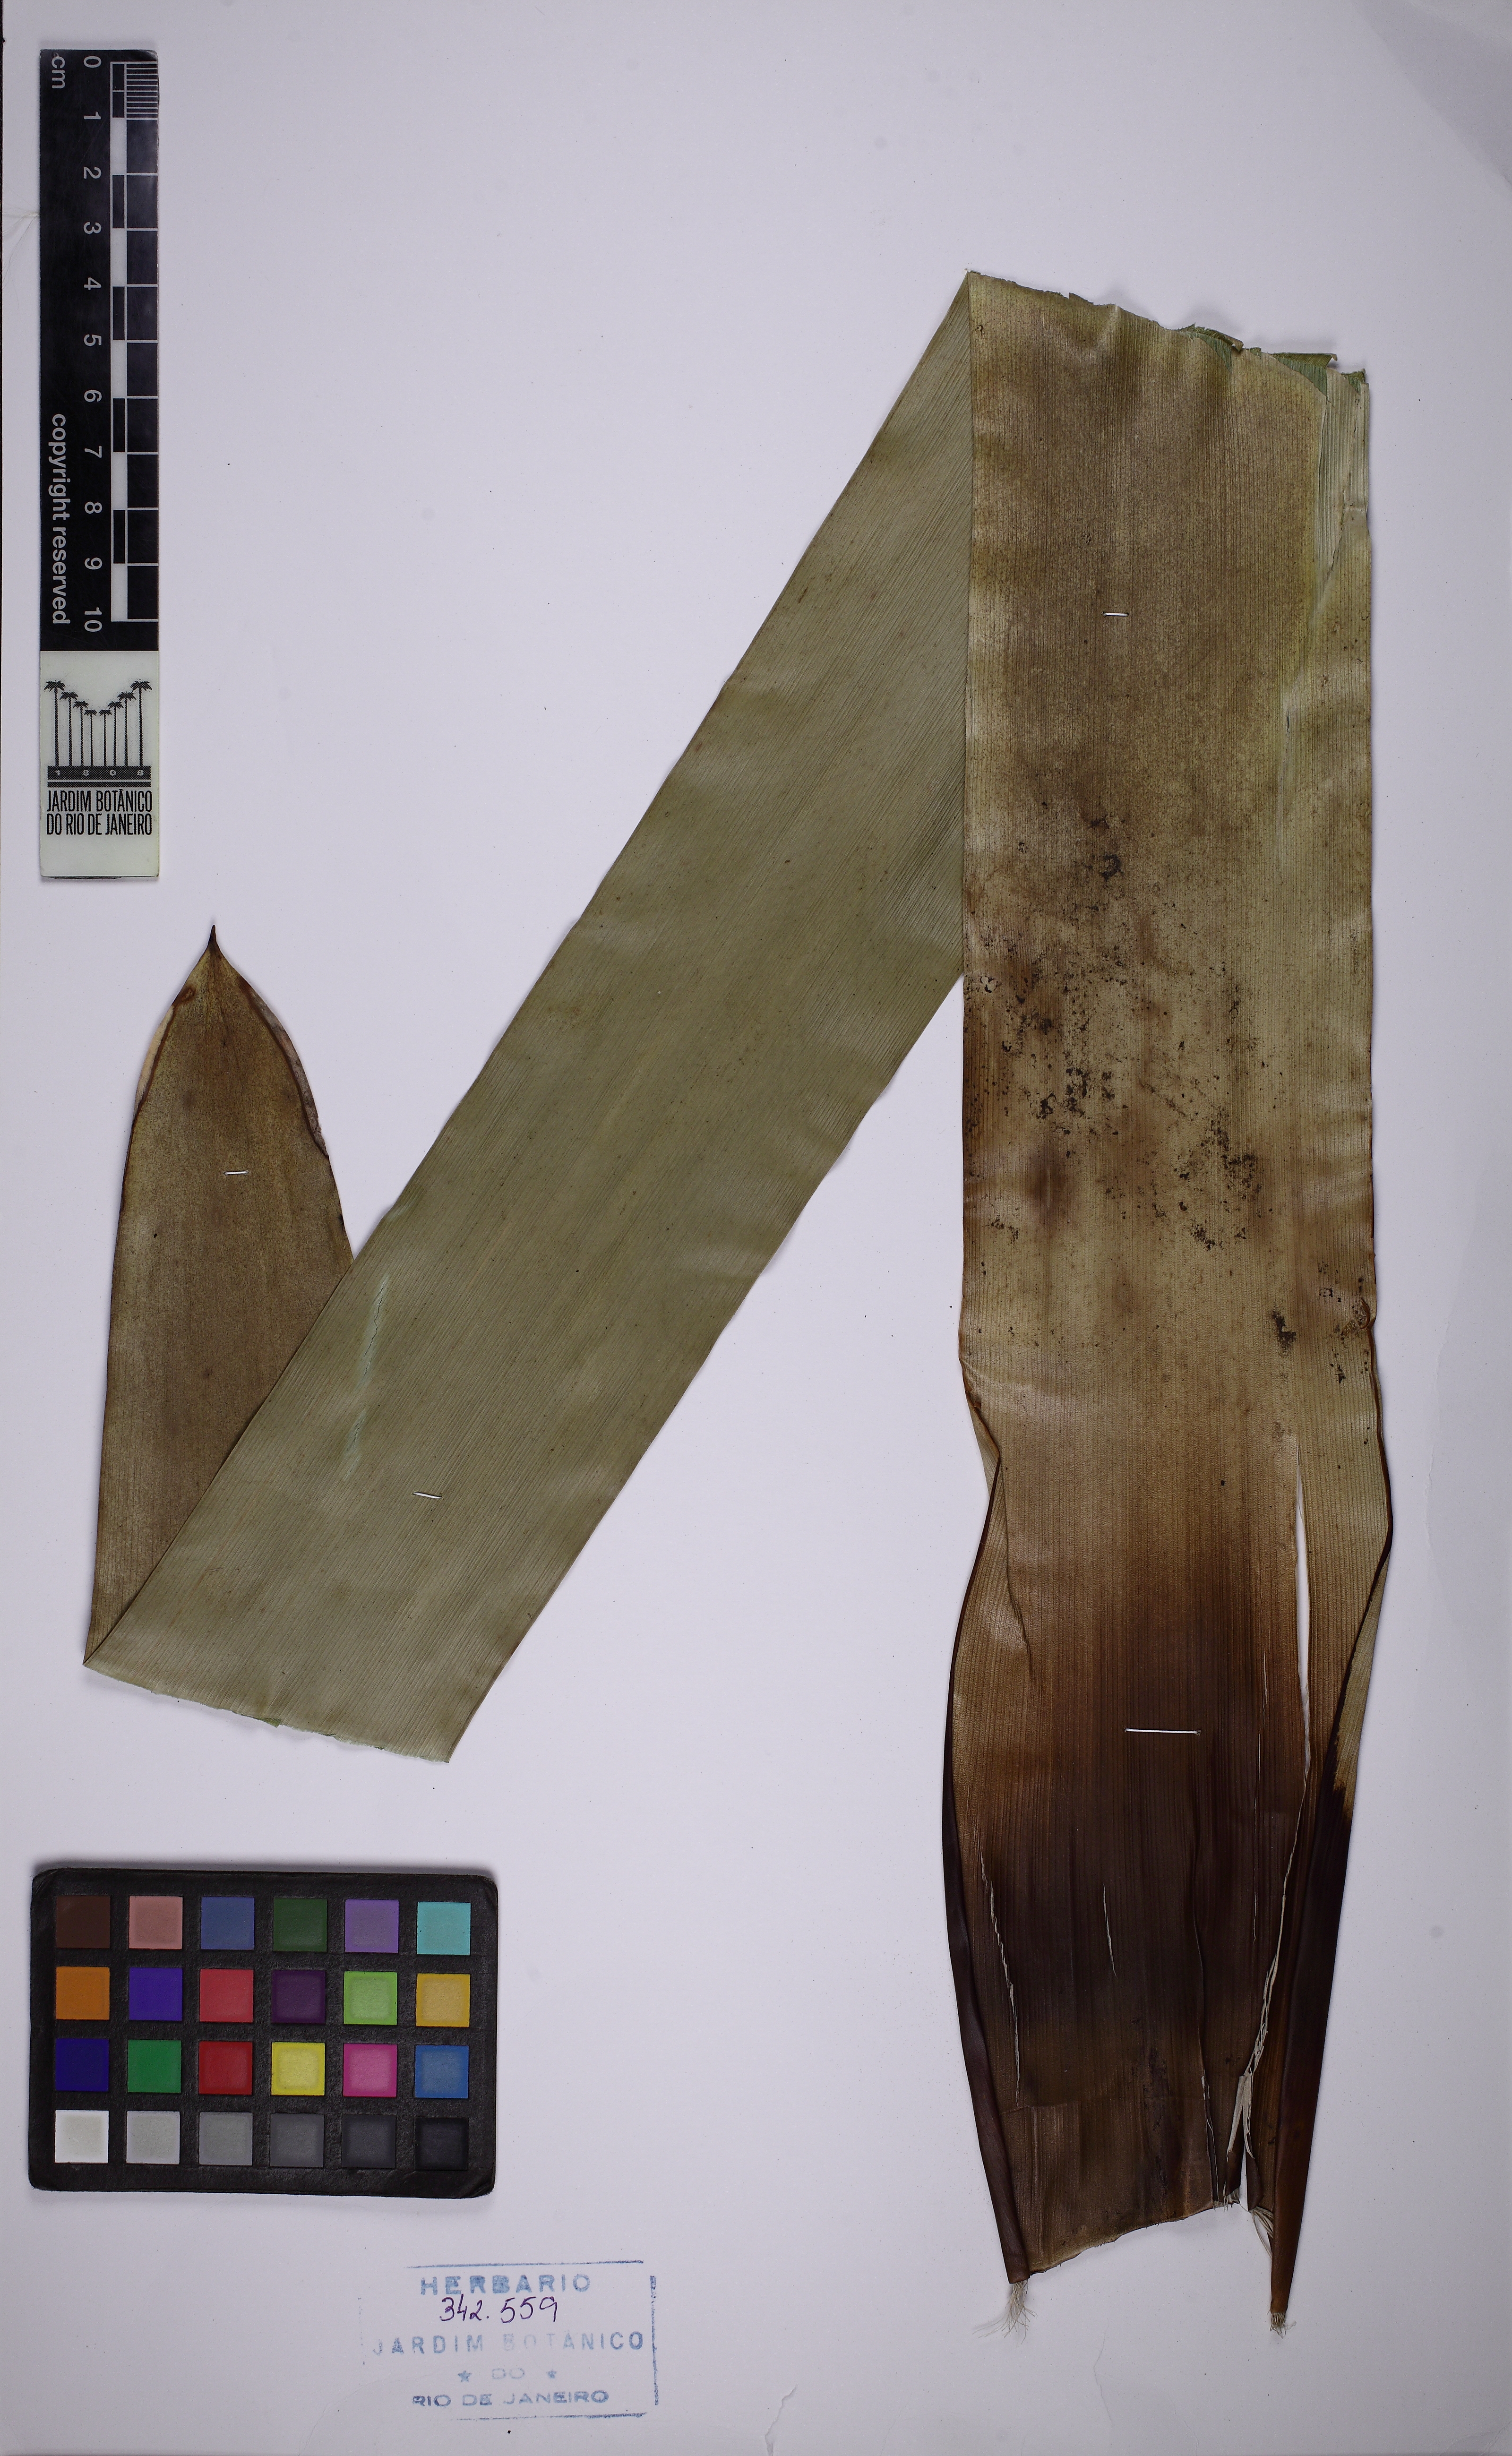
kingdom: Plantae
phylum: Tracheophyta
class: Liliopsida
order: Poales
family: Bromeliaceae
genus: Vriesea
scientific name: Vriesea tijucana
